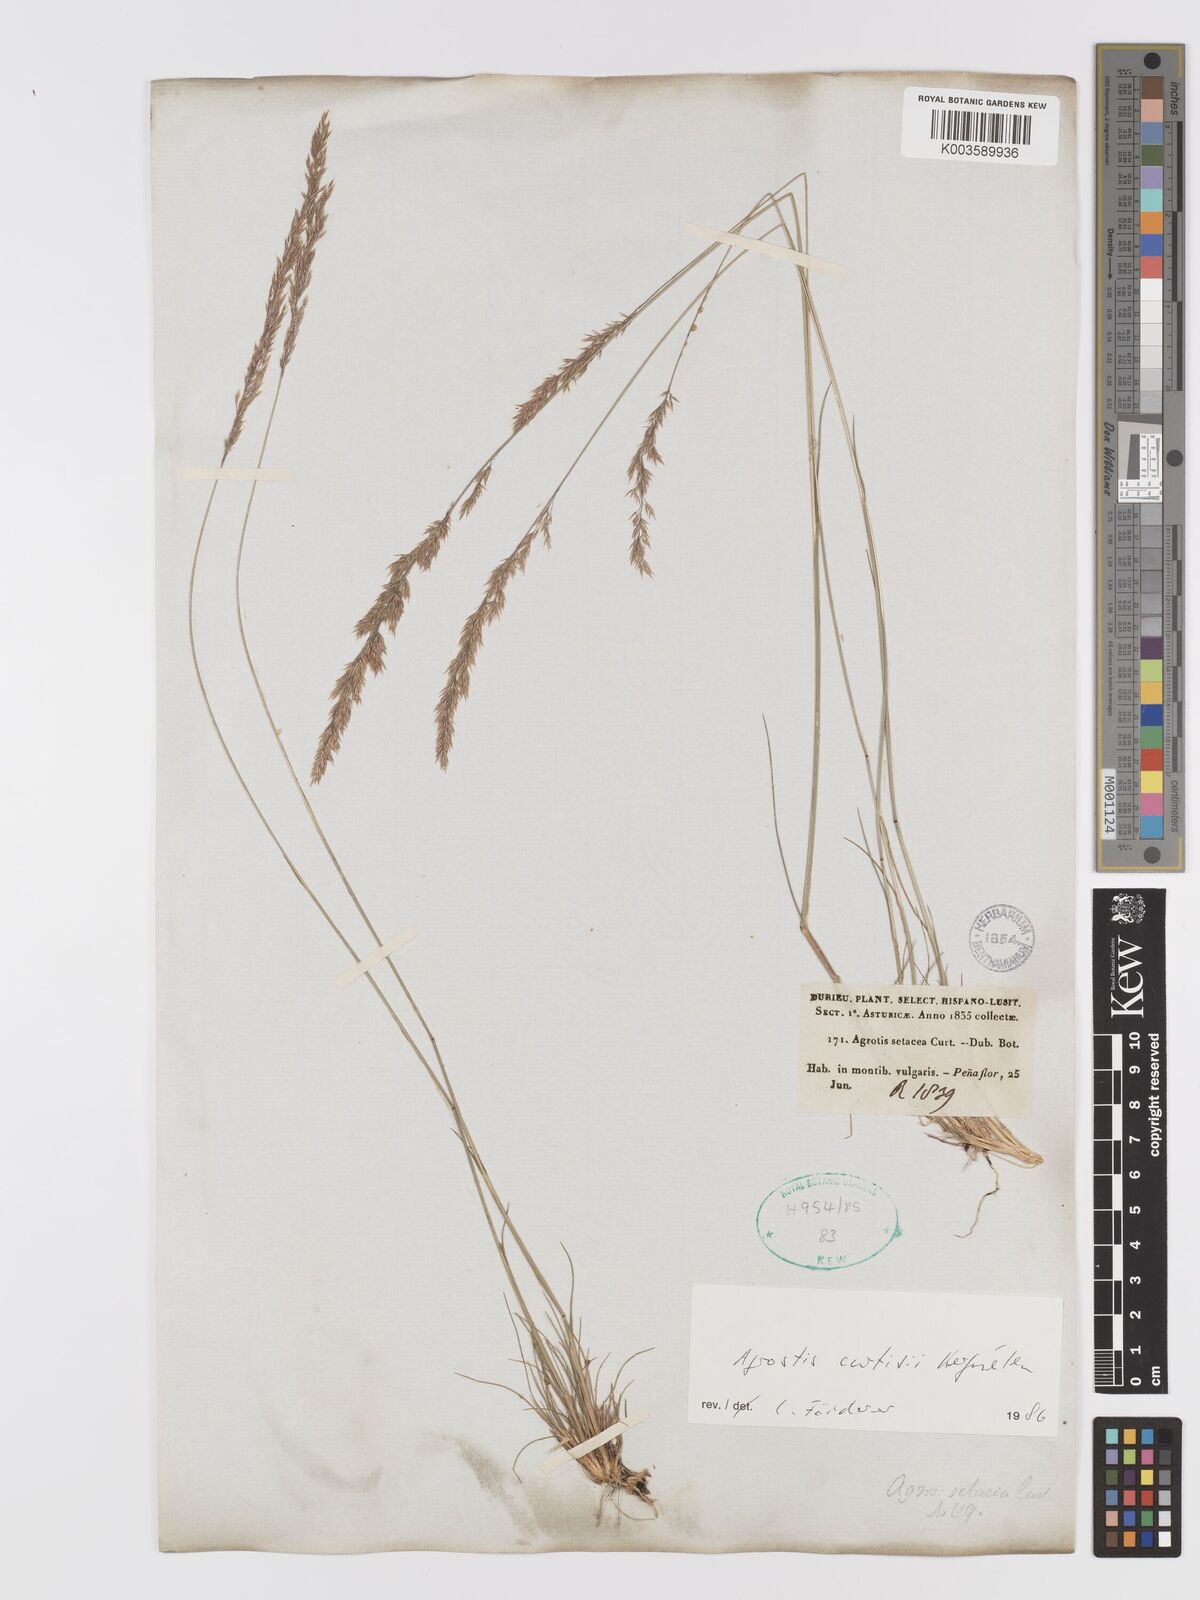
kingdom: Plantae
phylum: Tracheophyta
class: Liliopsida
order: Poales
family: Poaceae
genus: Alpagrostis
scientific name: Alpagrostis setacea
